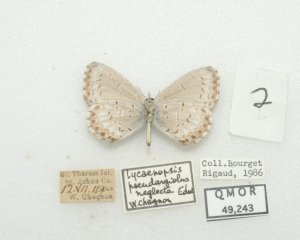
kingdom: Animalia
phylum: Arthropoda
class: Insecta
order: Lepidoptera
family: Lycaenidae
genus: Cyaniris
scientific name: Cyaniris neglecta
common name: Summer Azure
